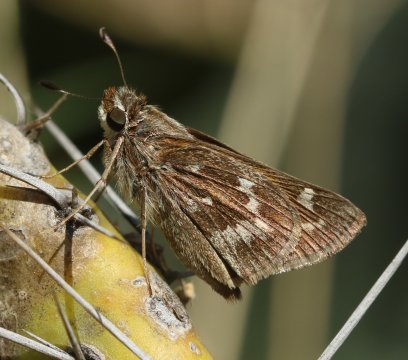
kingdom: Animalia
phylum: Arthropoda
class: Insecta
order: Lepidoptera
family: Hesperiidae
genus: Hesperia
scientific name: Hesperia
